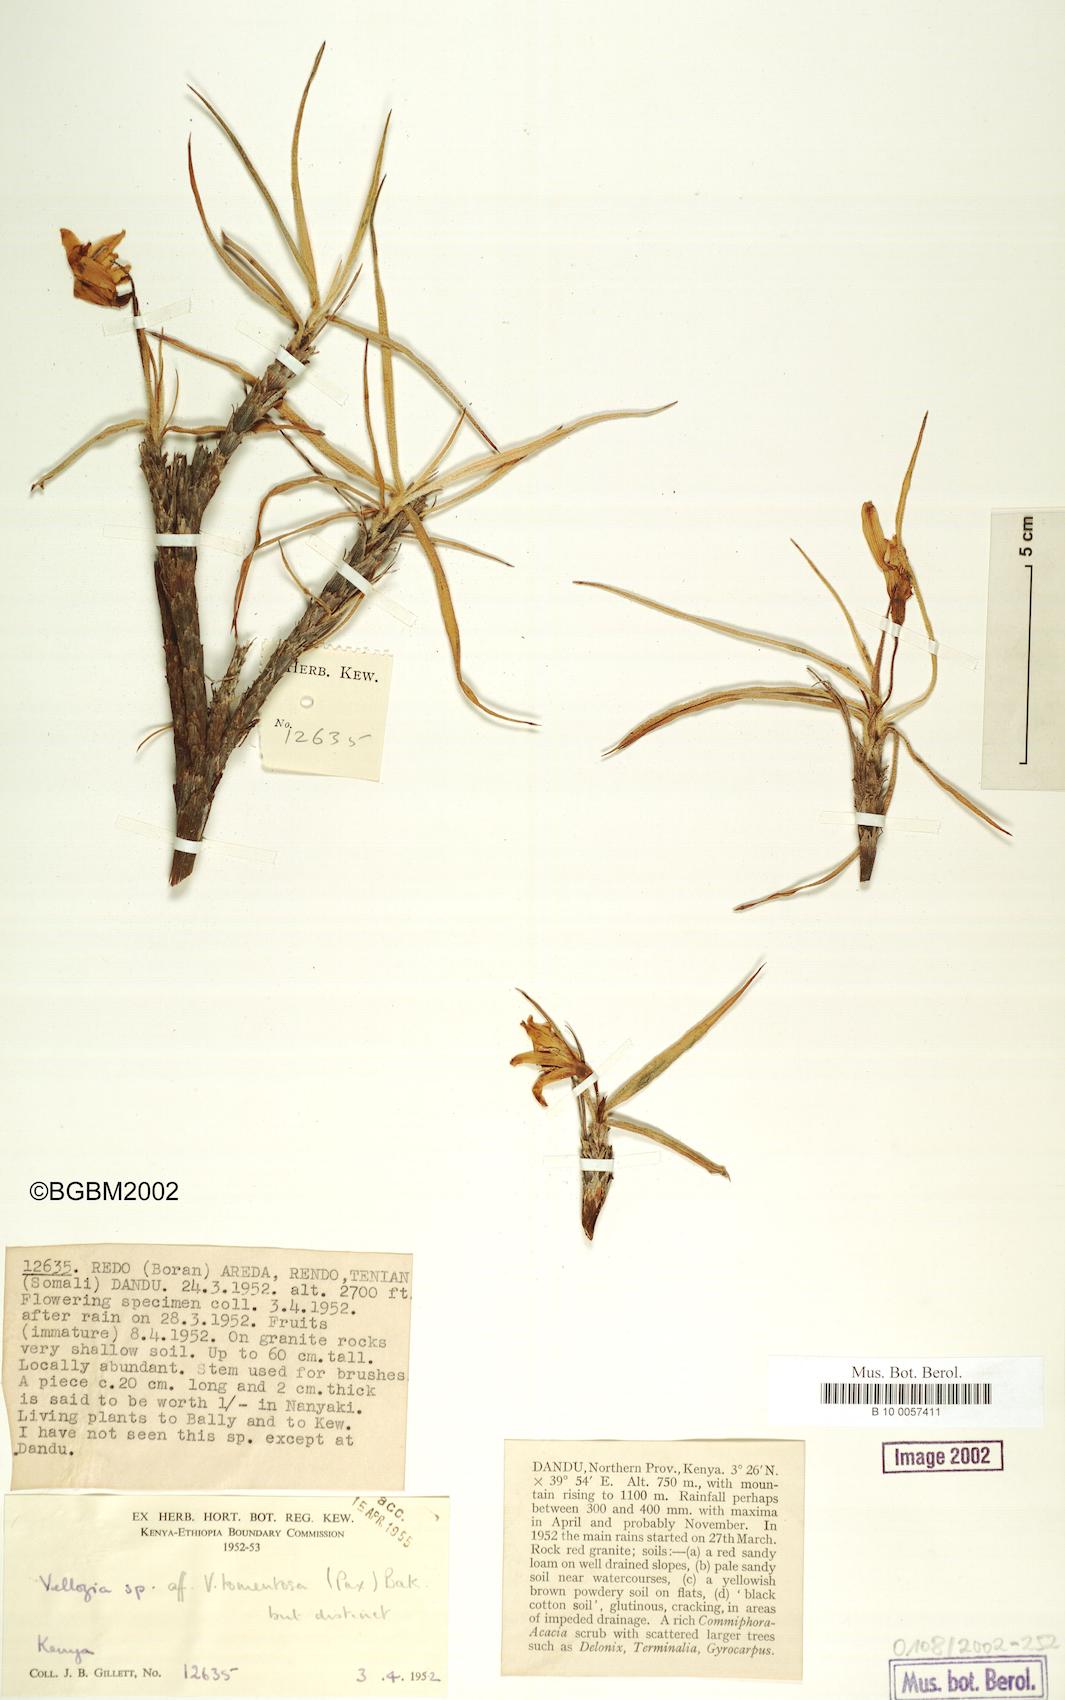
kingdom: Plantae
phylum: Tracheophyta
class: Liliopsida
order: Pandanales
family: Velloziaceae
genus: Xerophyta
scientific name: Xerophyta
